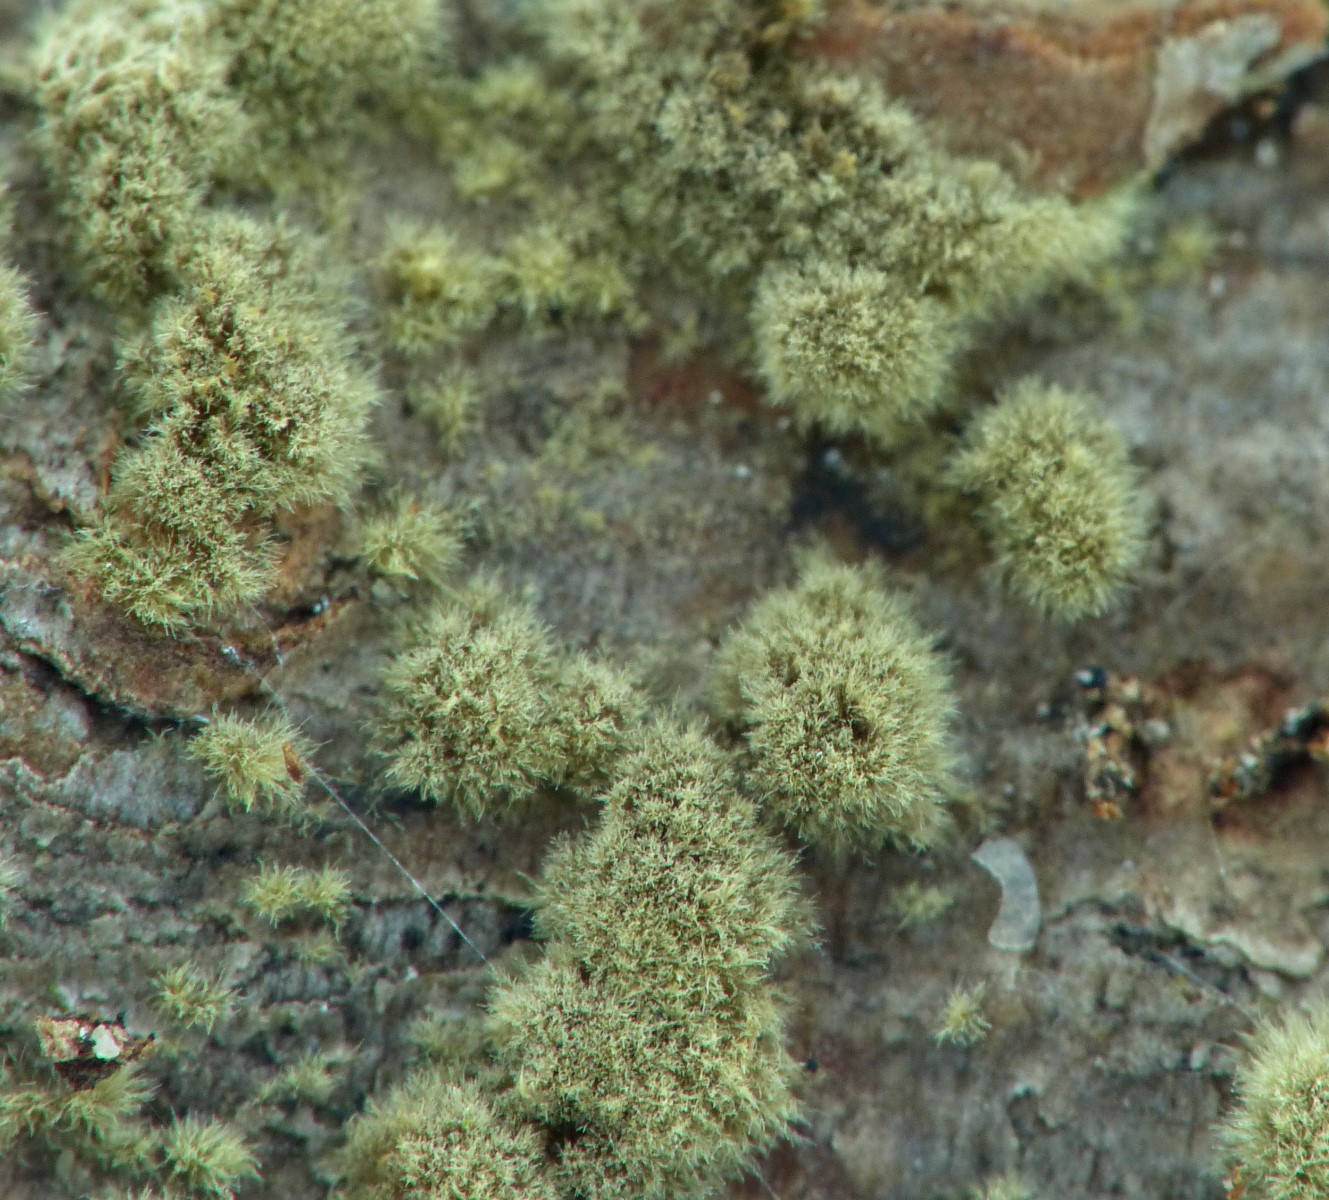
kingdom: Fungi
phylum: Ascomycota
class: Sordariomycetes
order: Xylariales
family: Hypoxylaceae
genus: Hypoxylon
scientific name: Hypoxylon rubiginosum
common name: rustfarvet kulbær
